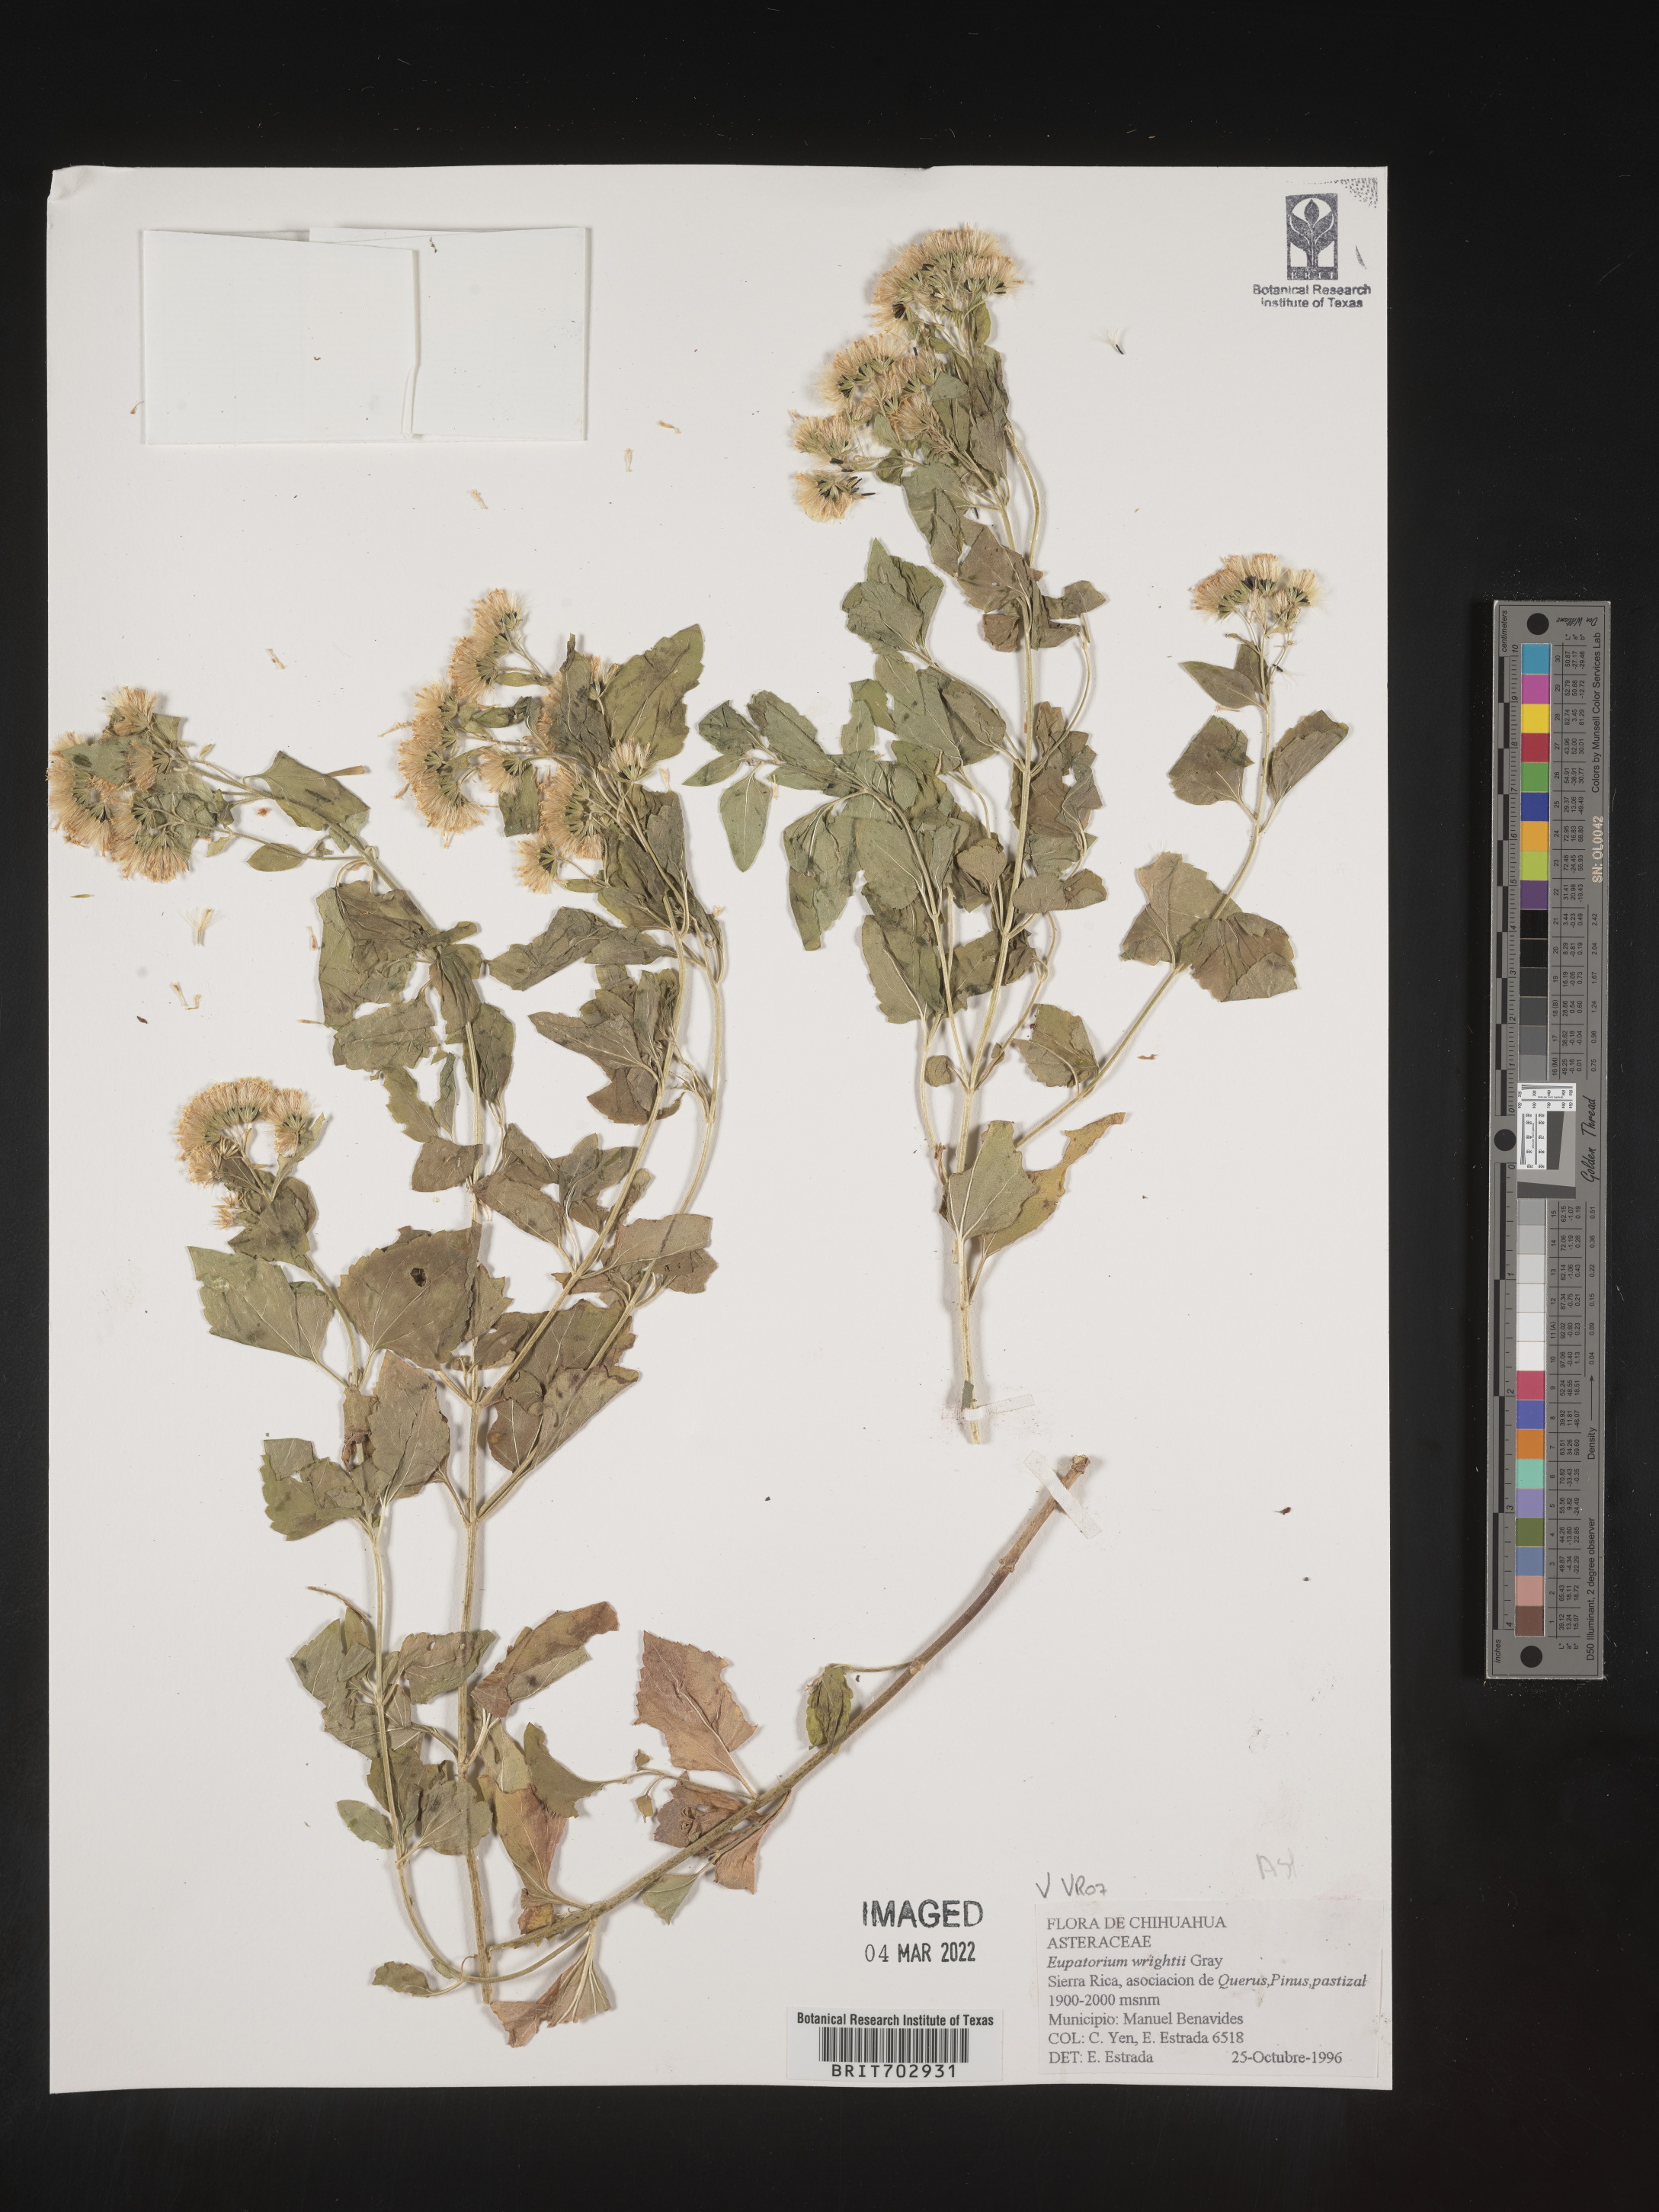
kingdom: Plantae
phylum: Tracheophyta
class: Magnoliopsida
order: Asterales
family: Asteraceae
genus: Eupatorium
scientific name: Eupatorium
